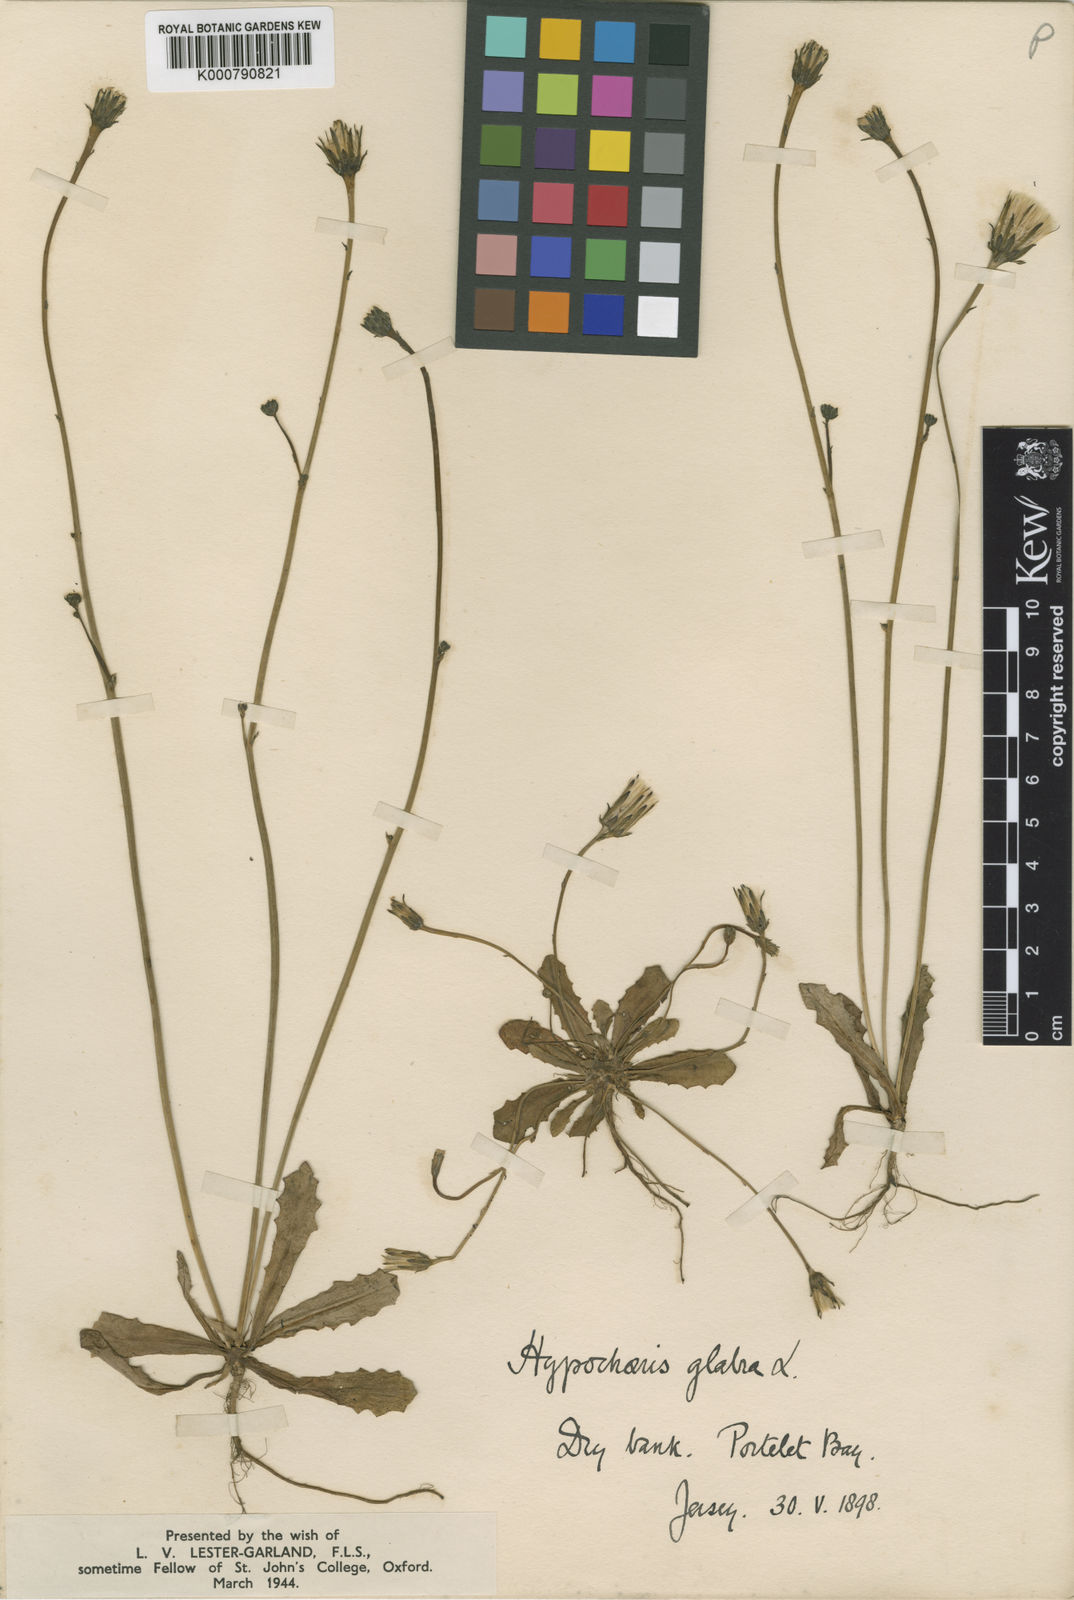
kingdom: Plantae
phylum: Tracheophyta
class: Magnoliopsida
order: Asterales
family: Asteraceae
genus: Hypochaeris
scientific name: Hypochaeris glabra
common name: Smooth catsear
